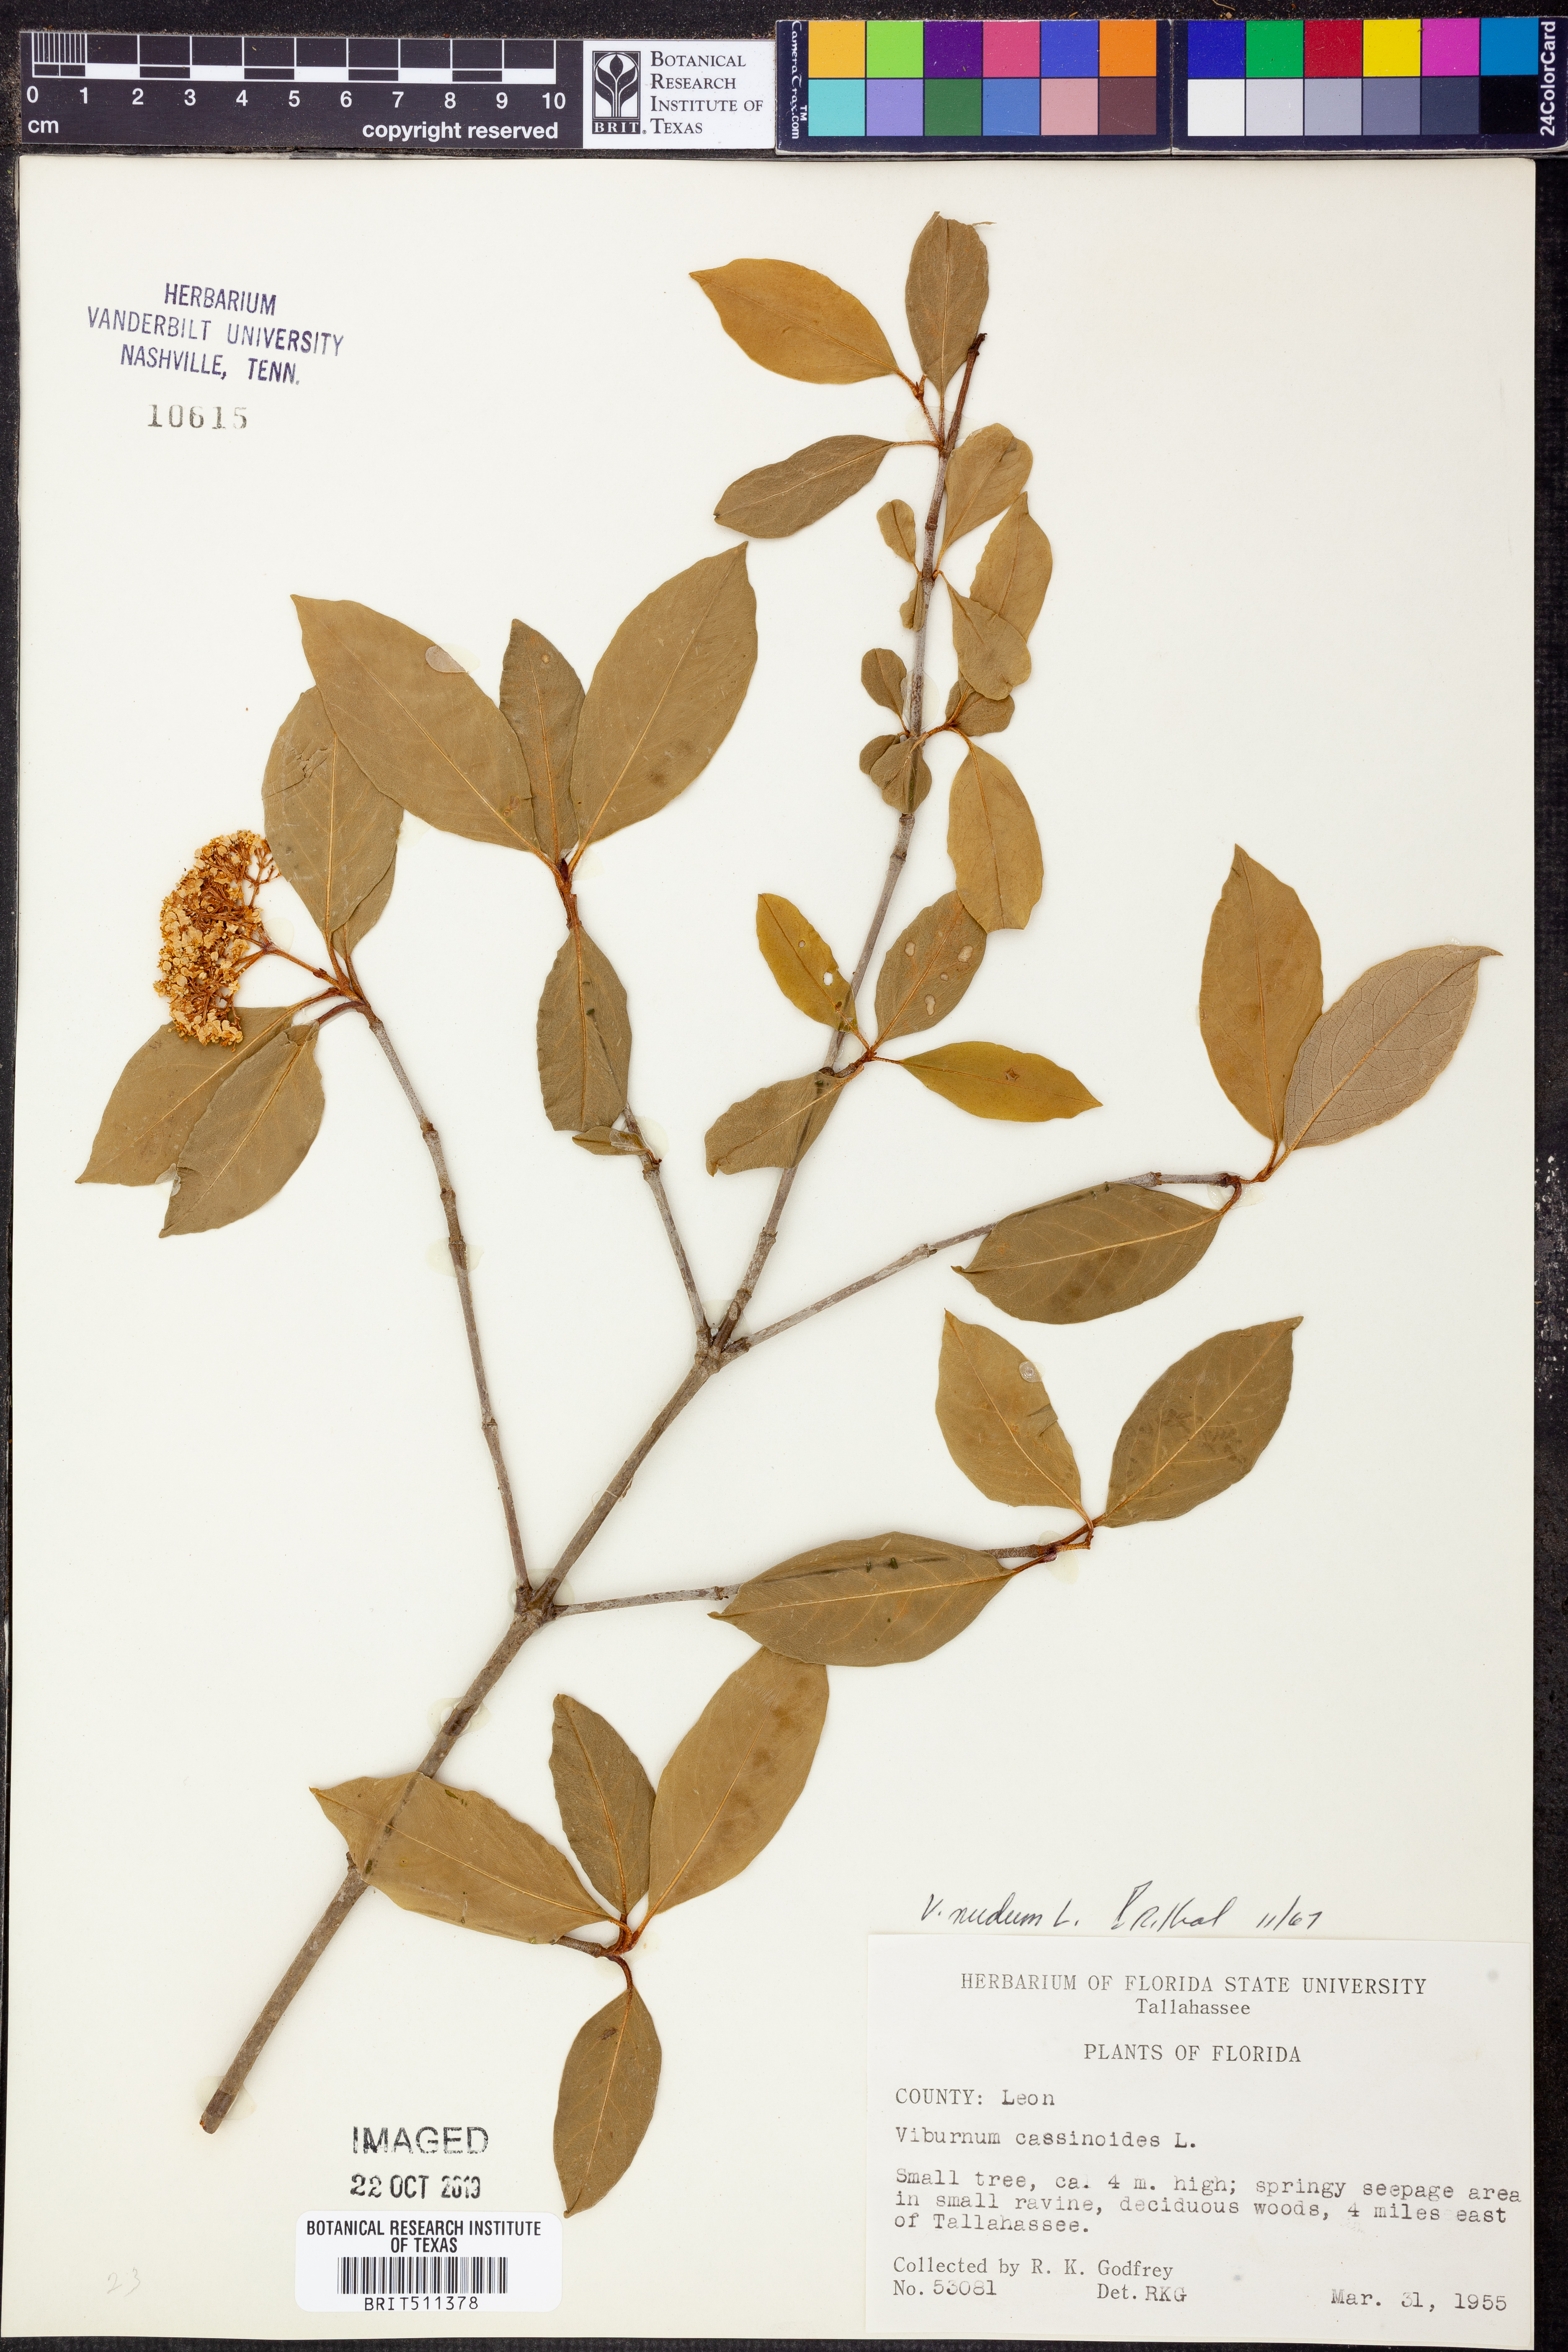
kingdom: Plantae
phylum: Tracheophyta
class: Magnoliopsida
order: Dipsacales
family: Viburnaceae
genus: Viburnum
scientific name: Viburnum nudum
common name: Possum haw
